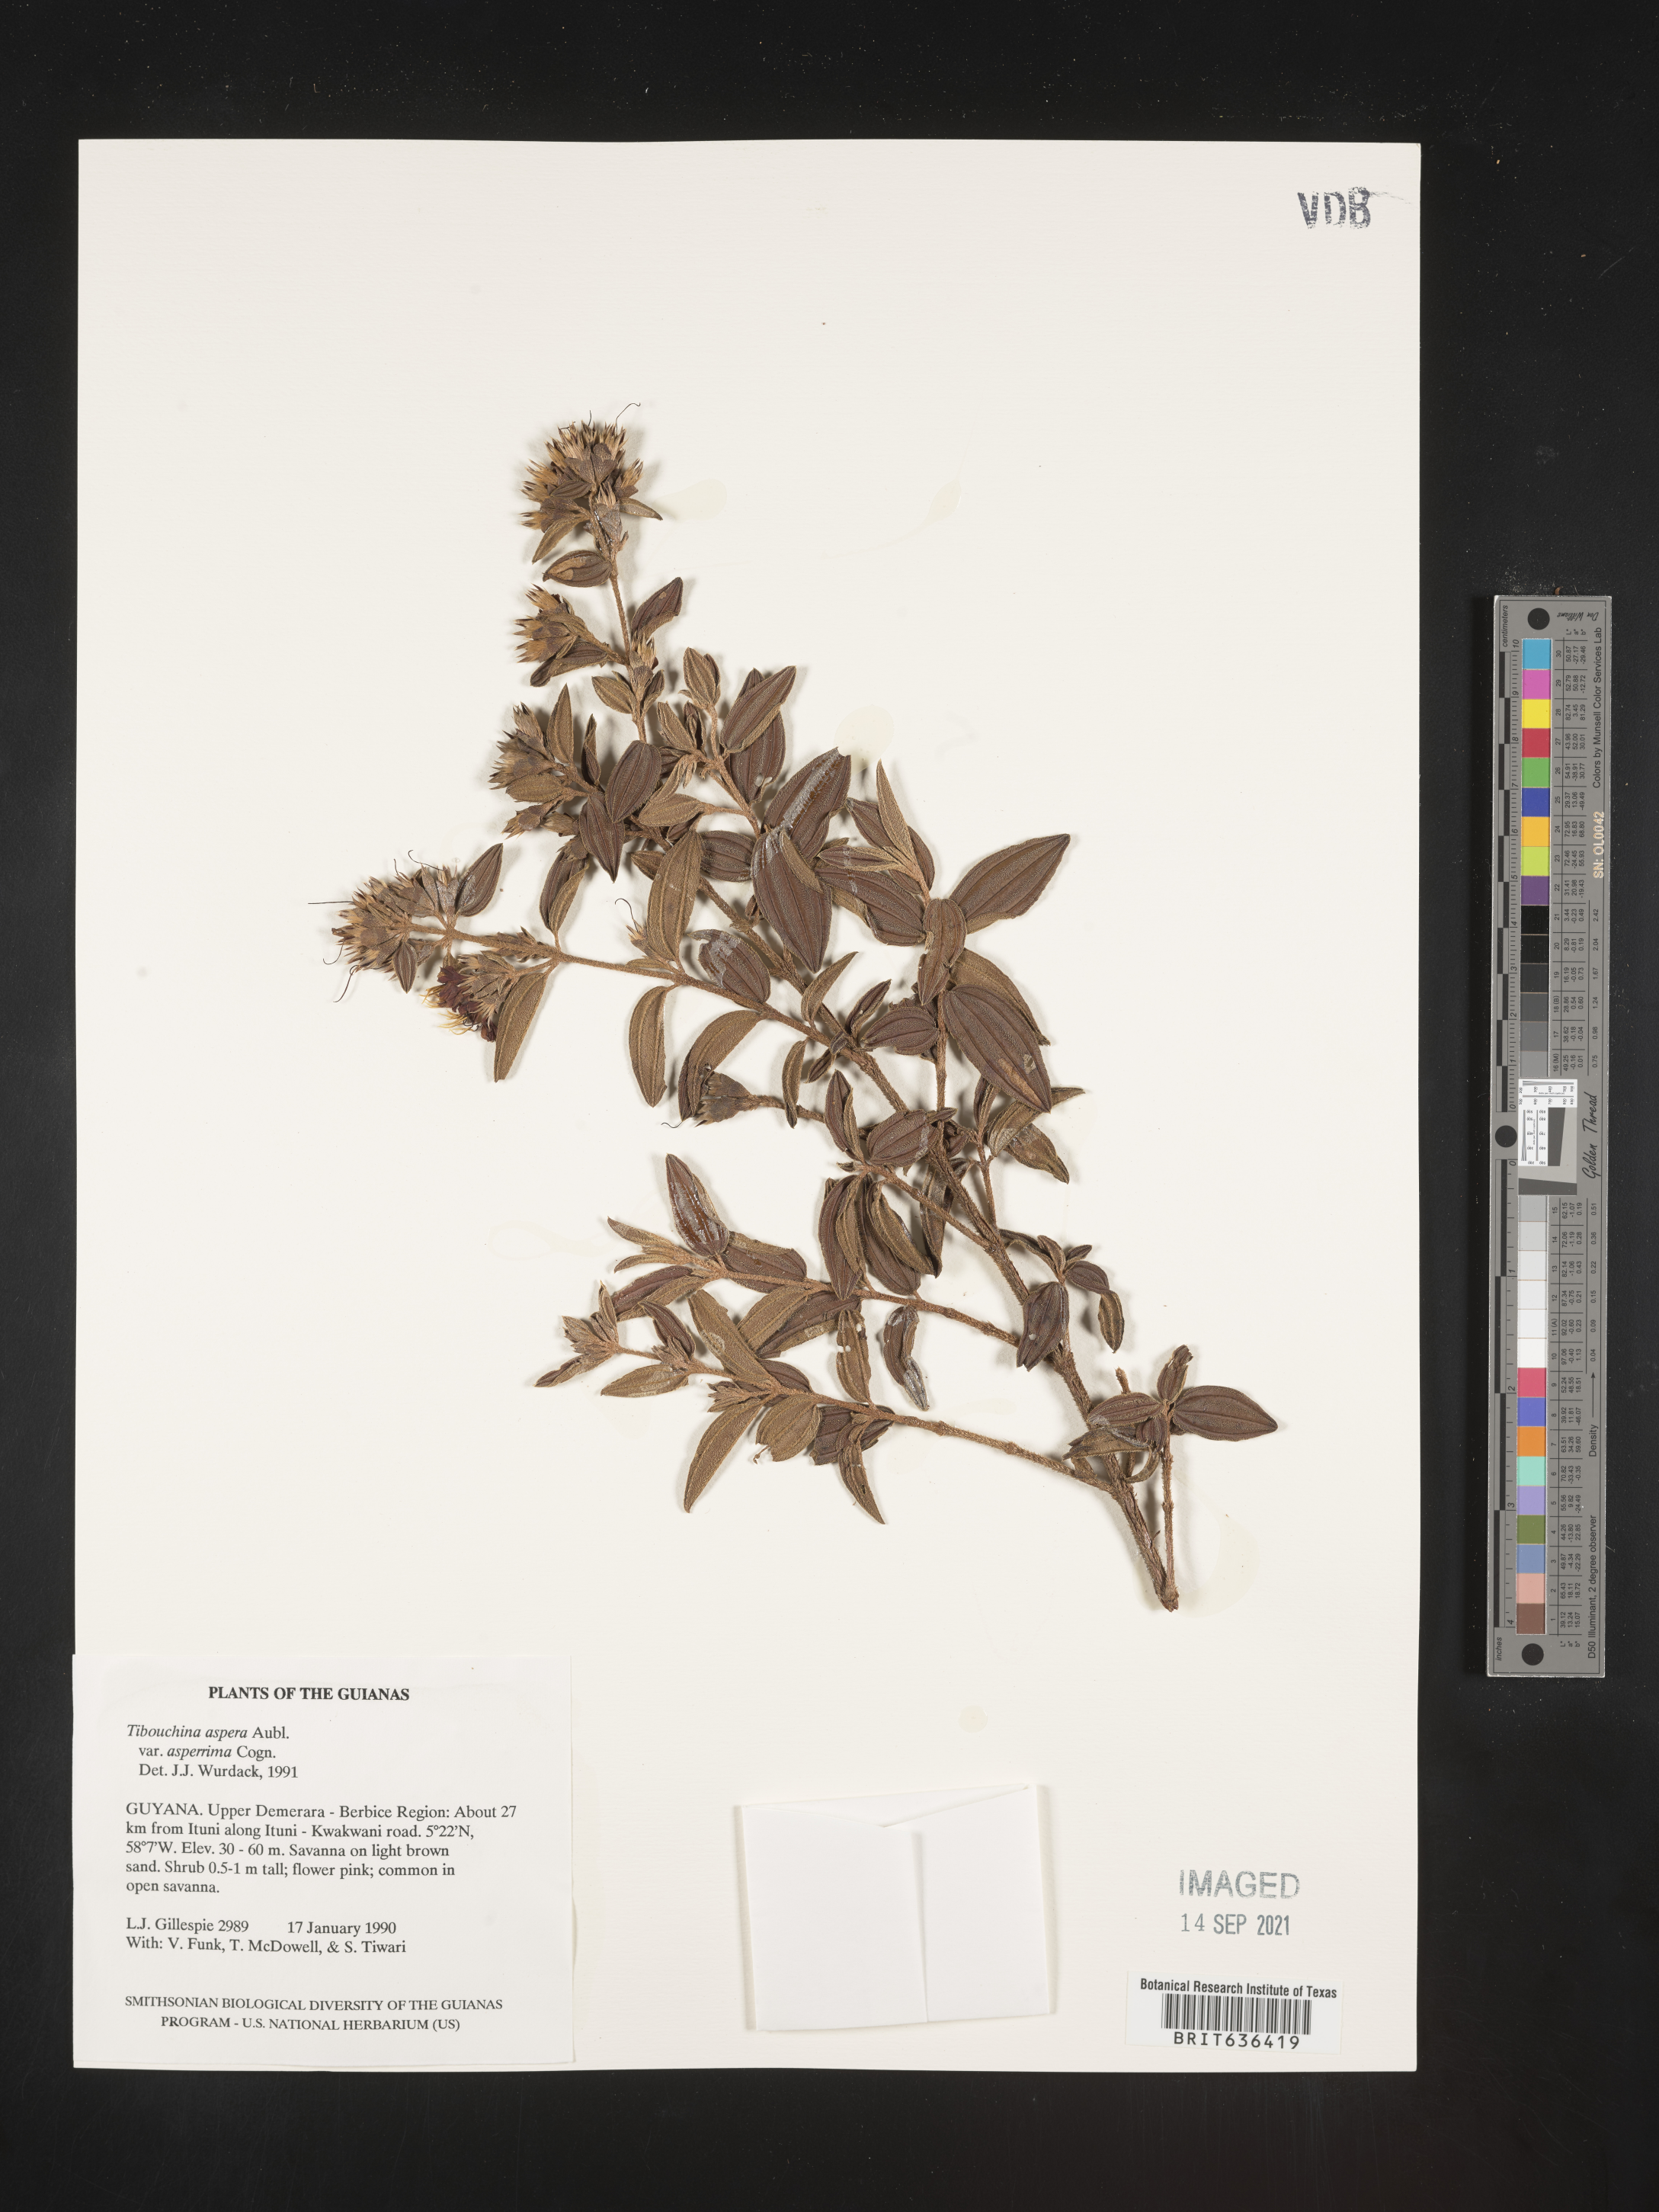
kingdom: Plantae
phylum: Tracheophyta
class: Magnoliopsida
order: Myrtales
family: Melastomataceae
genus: Tibouchina
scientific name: Tibouchina
